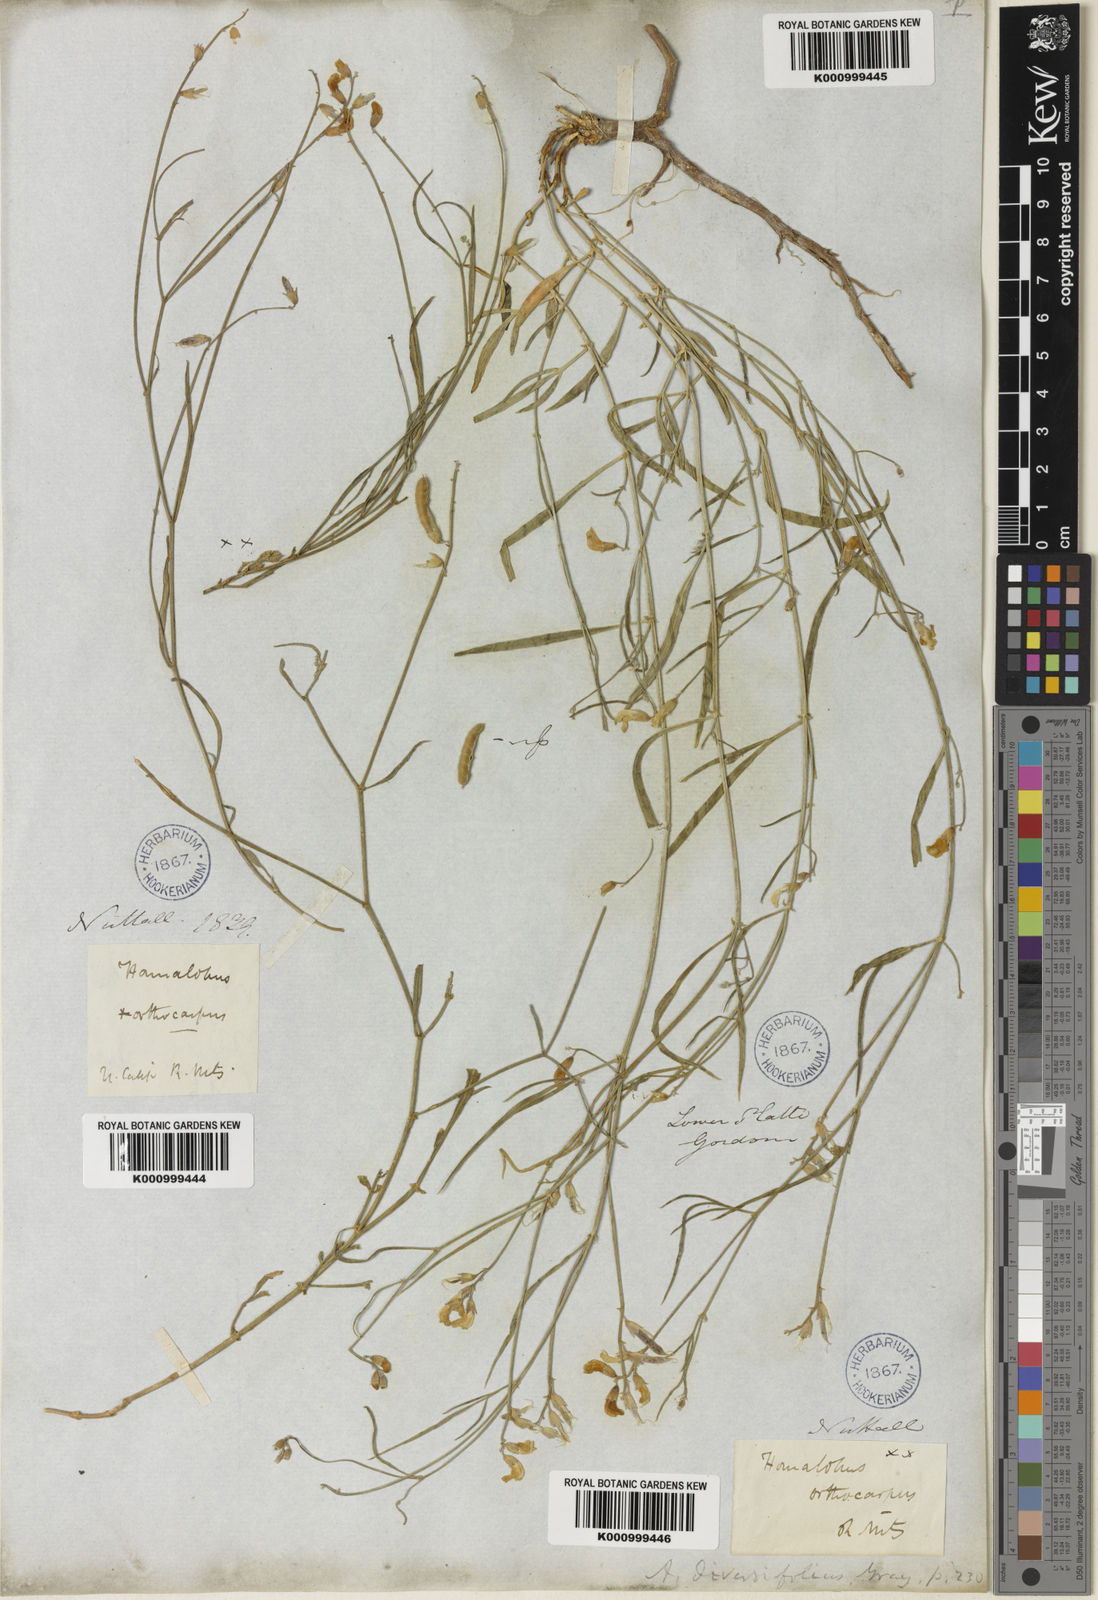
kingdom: Plantae
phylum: Tracheophyta
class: Magnoliopsida
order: Fabales
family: Fabaceae
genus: Astragalus
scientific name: Astragalus diversifolius
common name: Meadow milk-vetch
